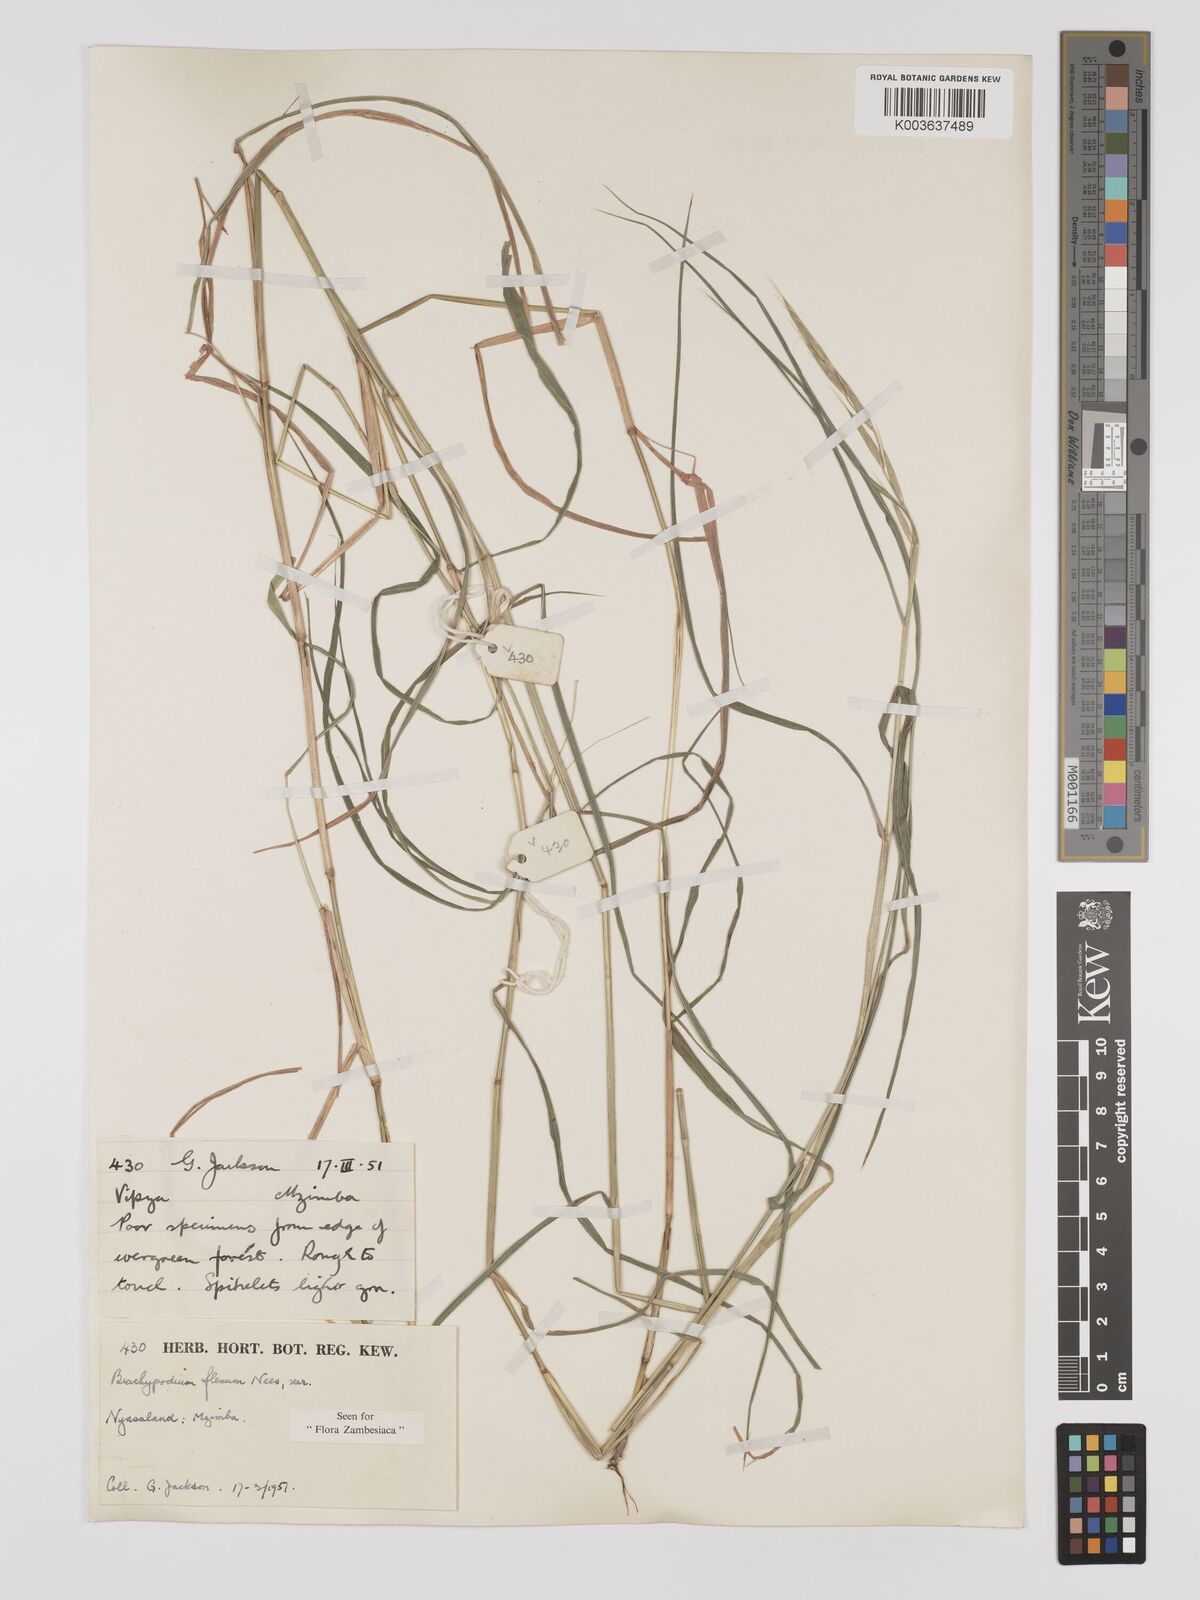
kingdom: Plantae
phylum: Tracheophyta
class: Liliopsida
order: Poales
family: Poaceae
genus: Brachypodium
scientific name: Brachypodium flexum
